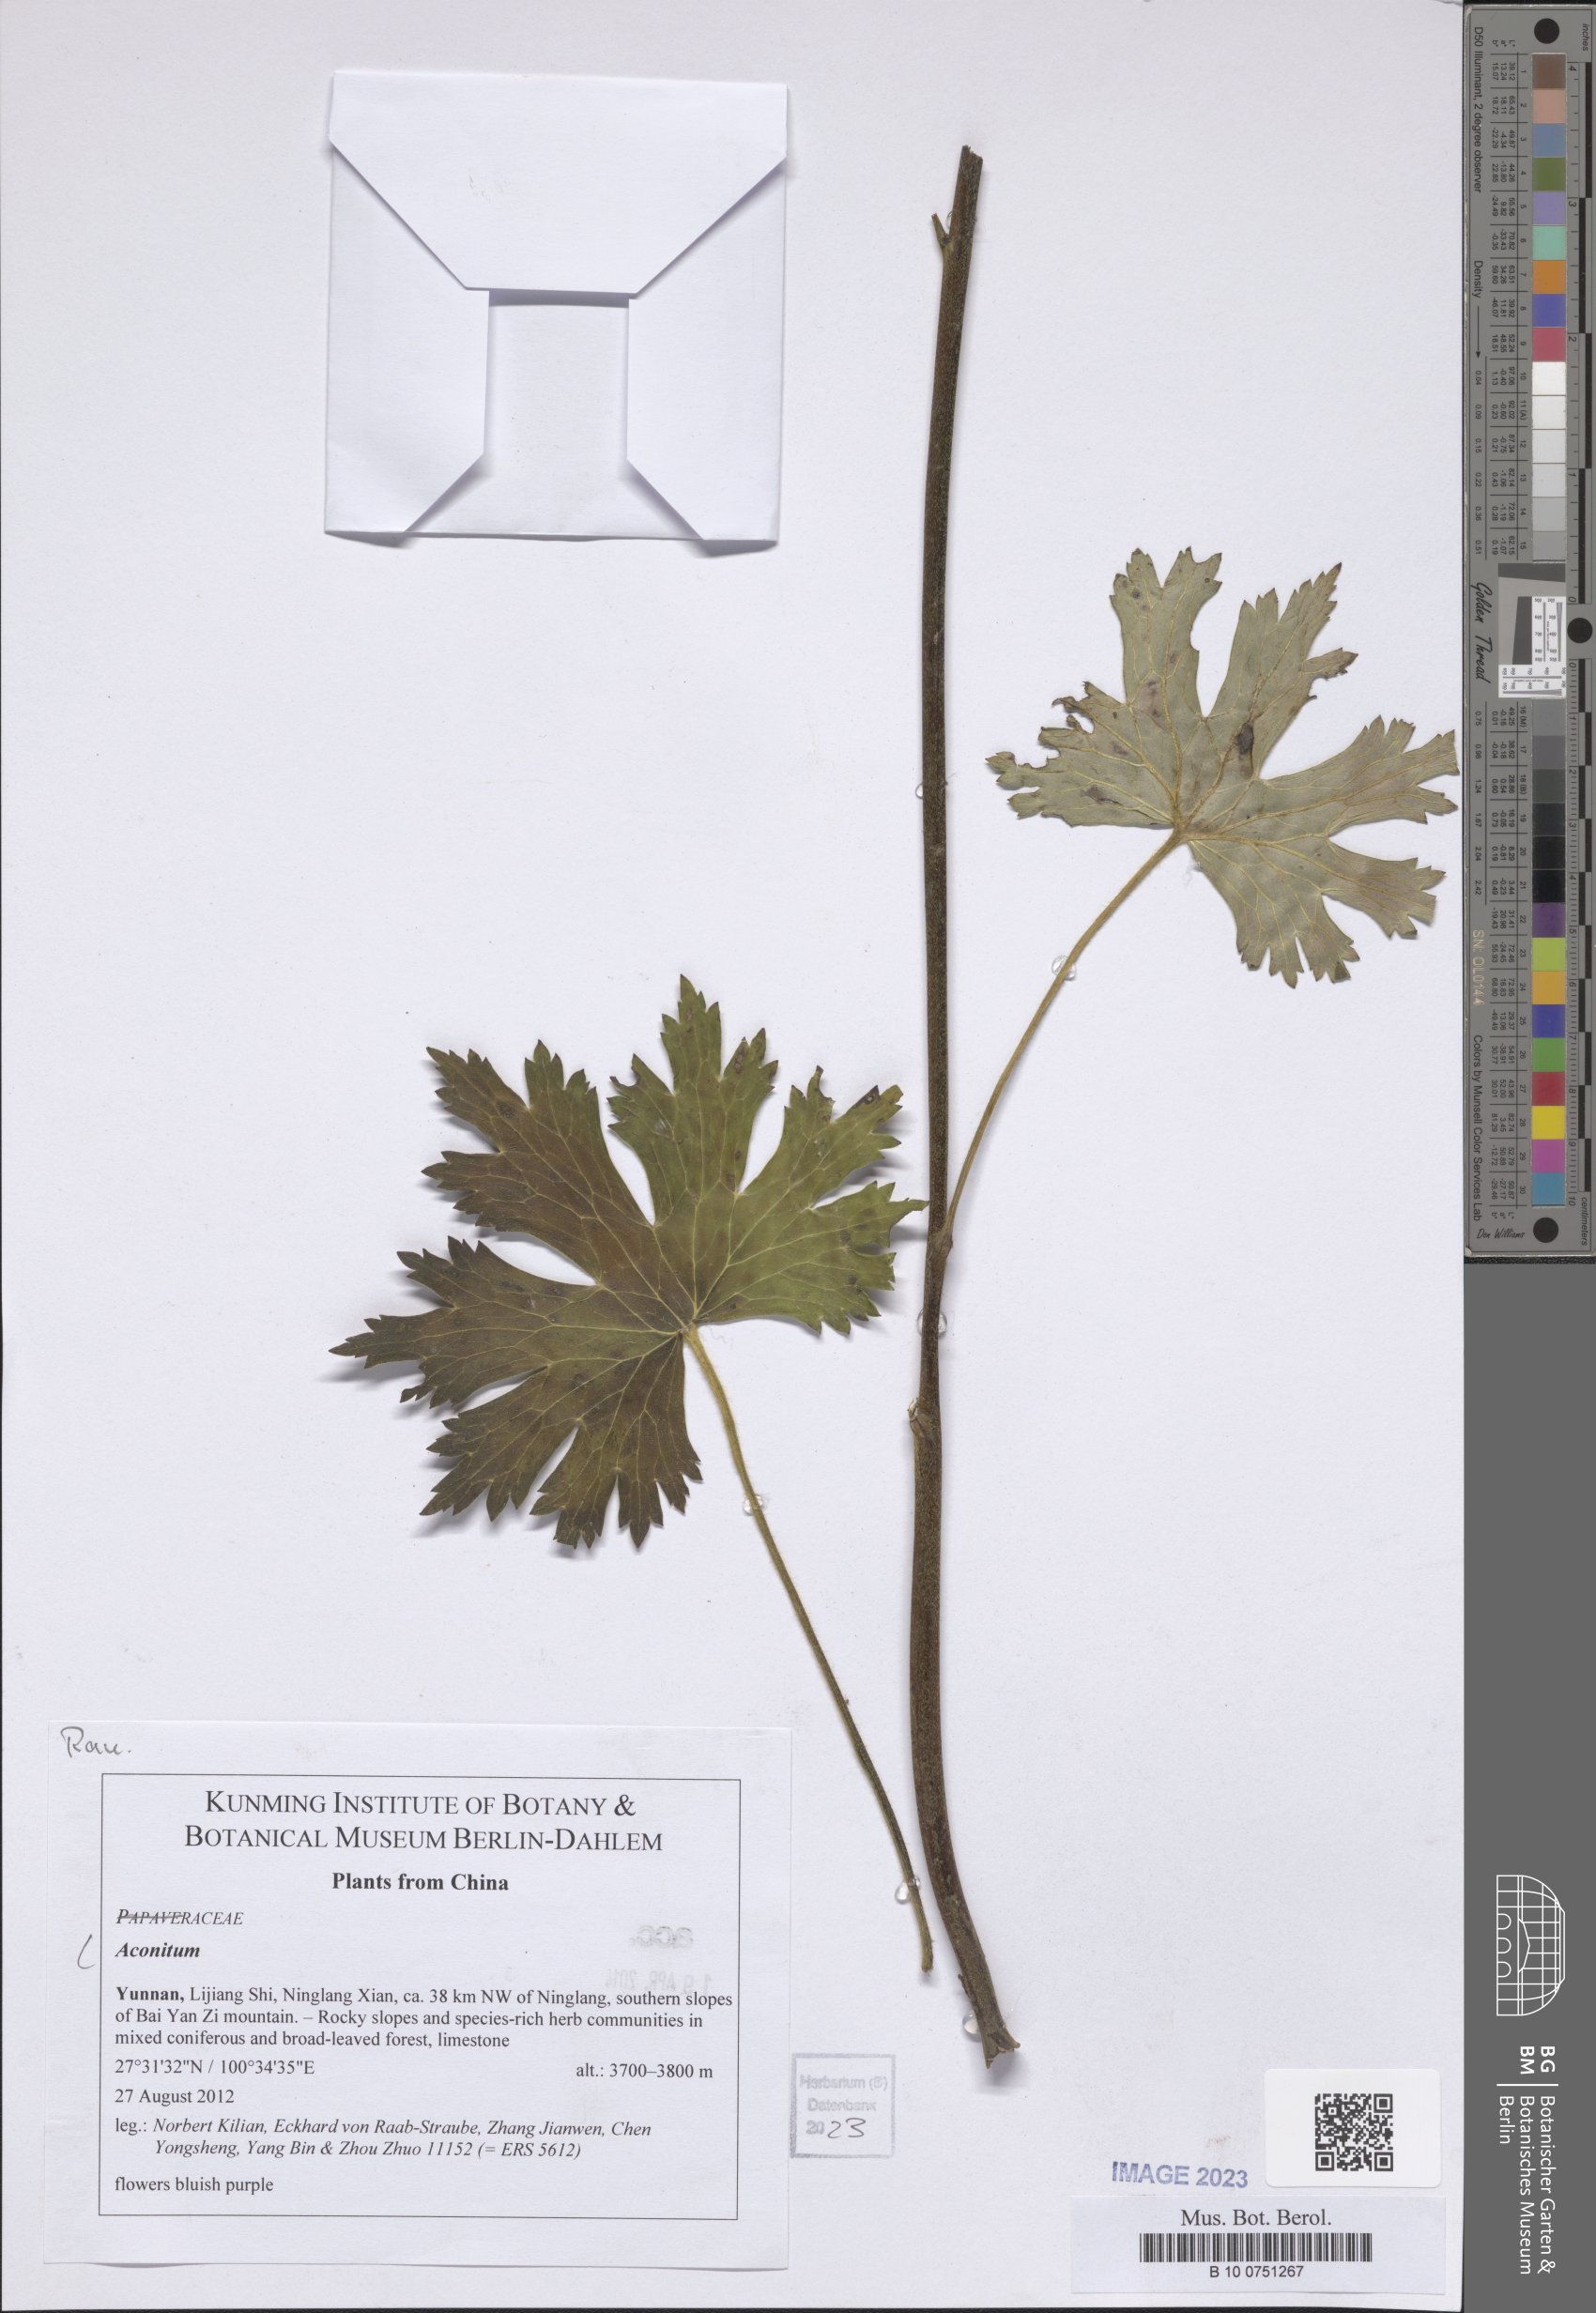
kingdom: Plantae
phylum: Tracheophyta
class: Magnoliopsida
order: Ranunculales
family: Ranunculaceae
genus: Aconitum
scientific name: Aconitum
